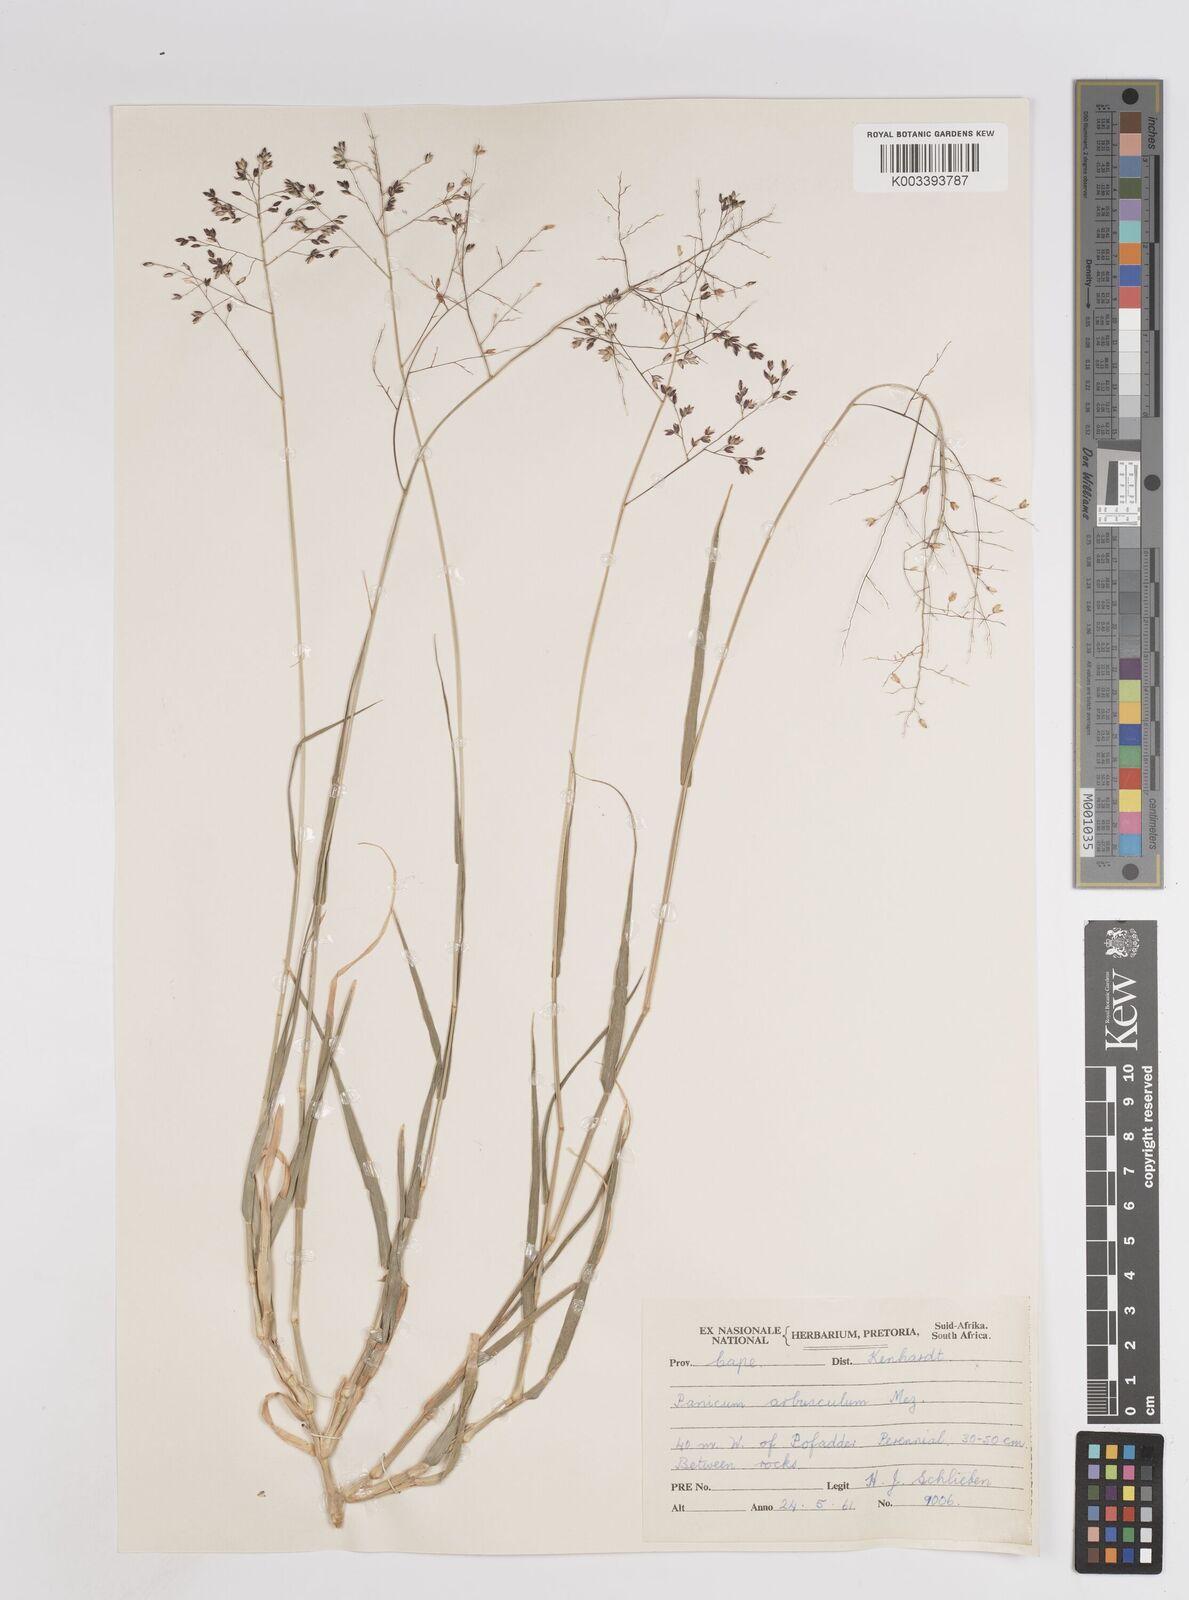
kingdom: Plantae
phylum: Tracheophyta
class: Liliopsida
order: Poales
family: Poaceae
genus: Panicum
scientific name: Panicum arbusculum
